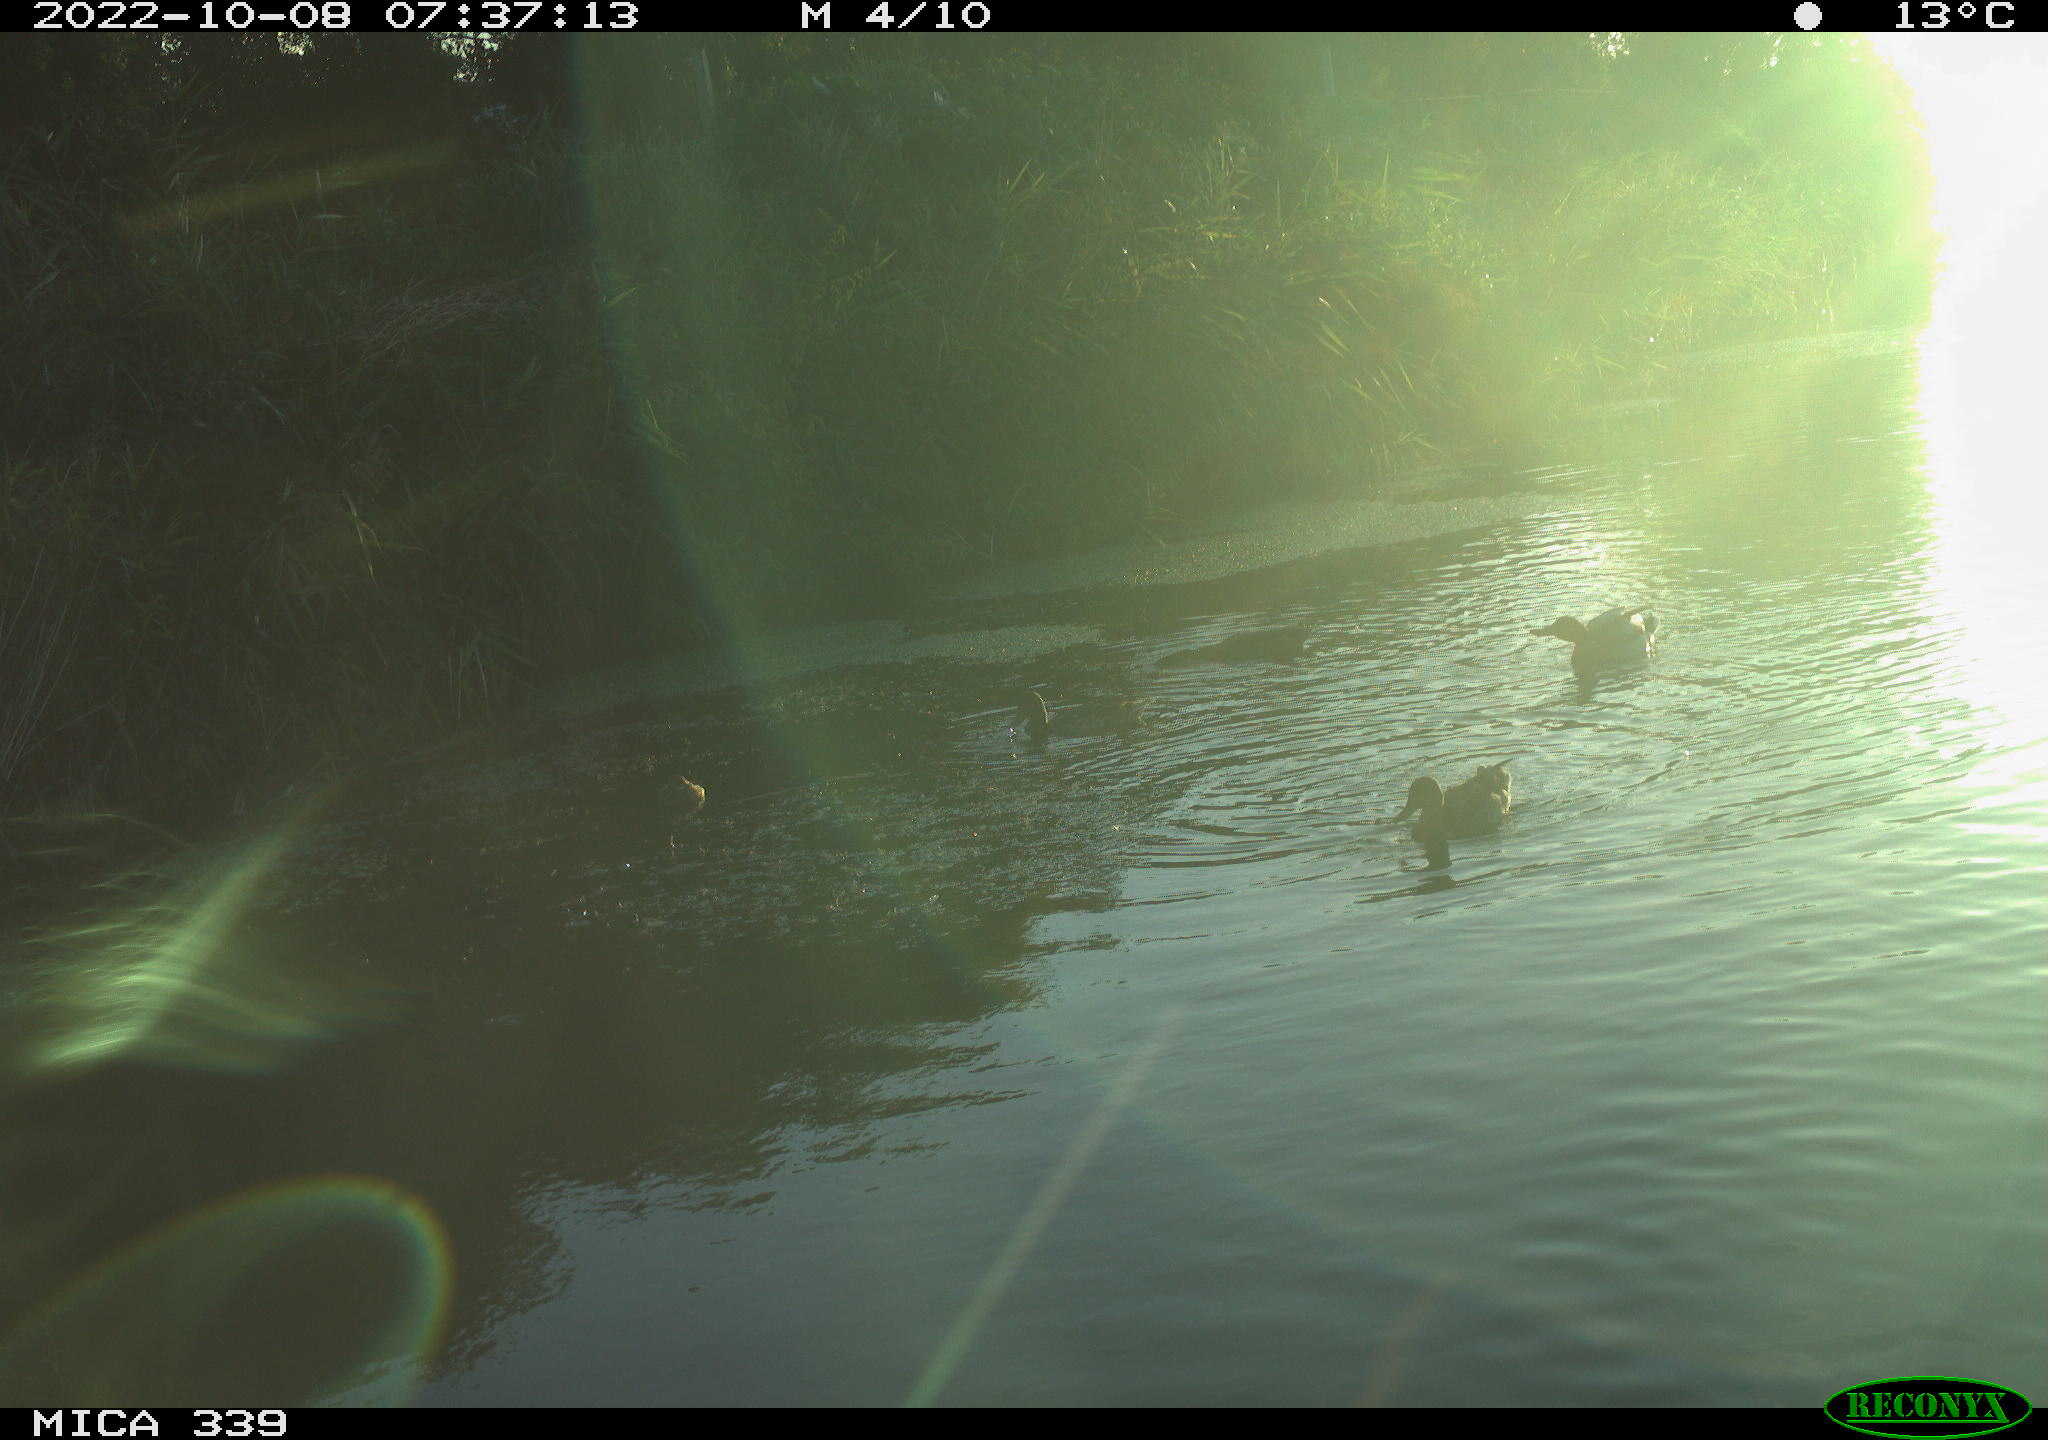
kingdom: Animalia
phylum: Chordata
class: Aves
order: Anseriformes
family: Anatidae
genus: Anas
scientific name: Anas platyrhynchos
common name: Mallard
